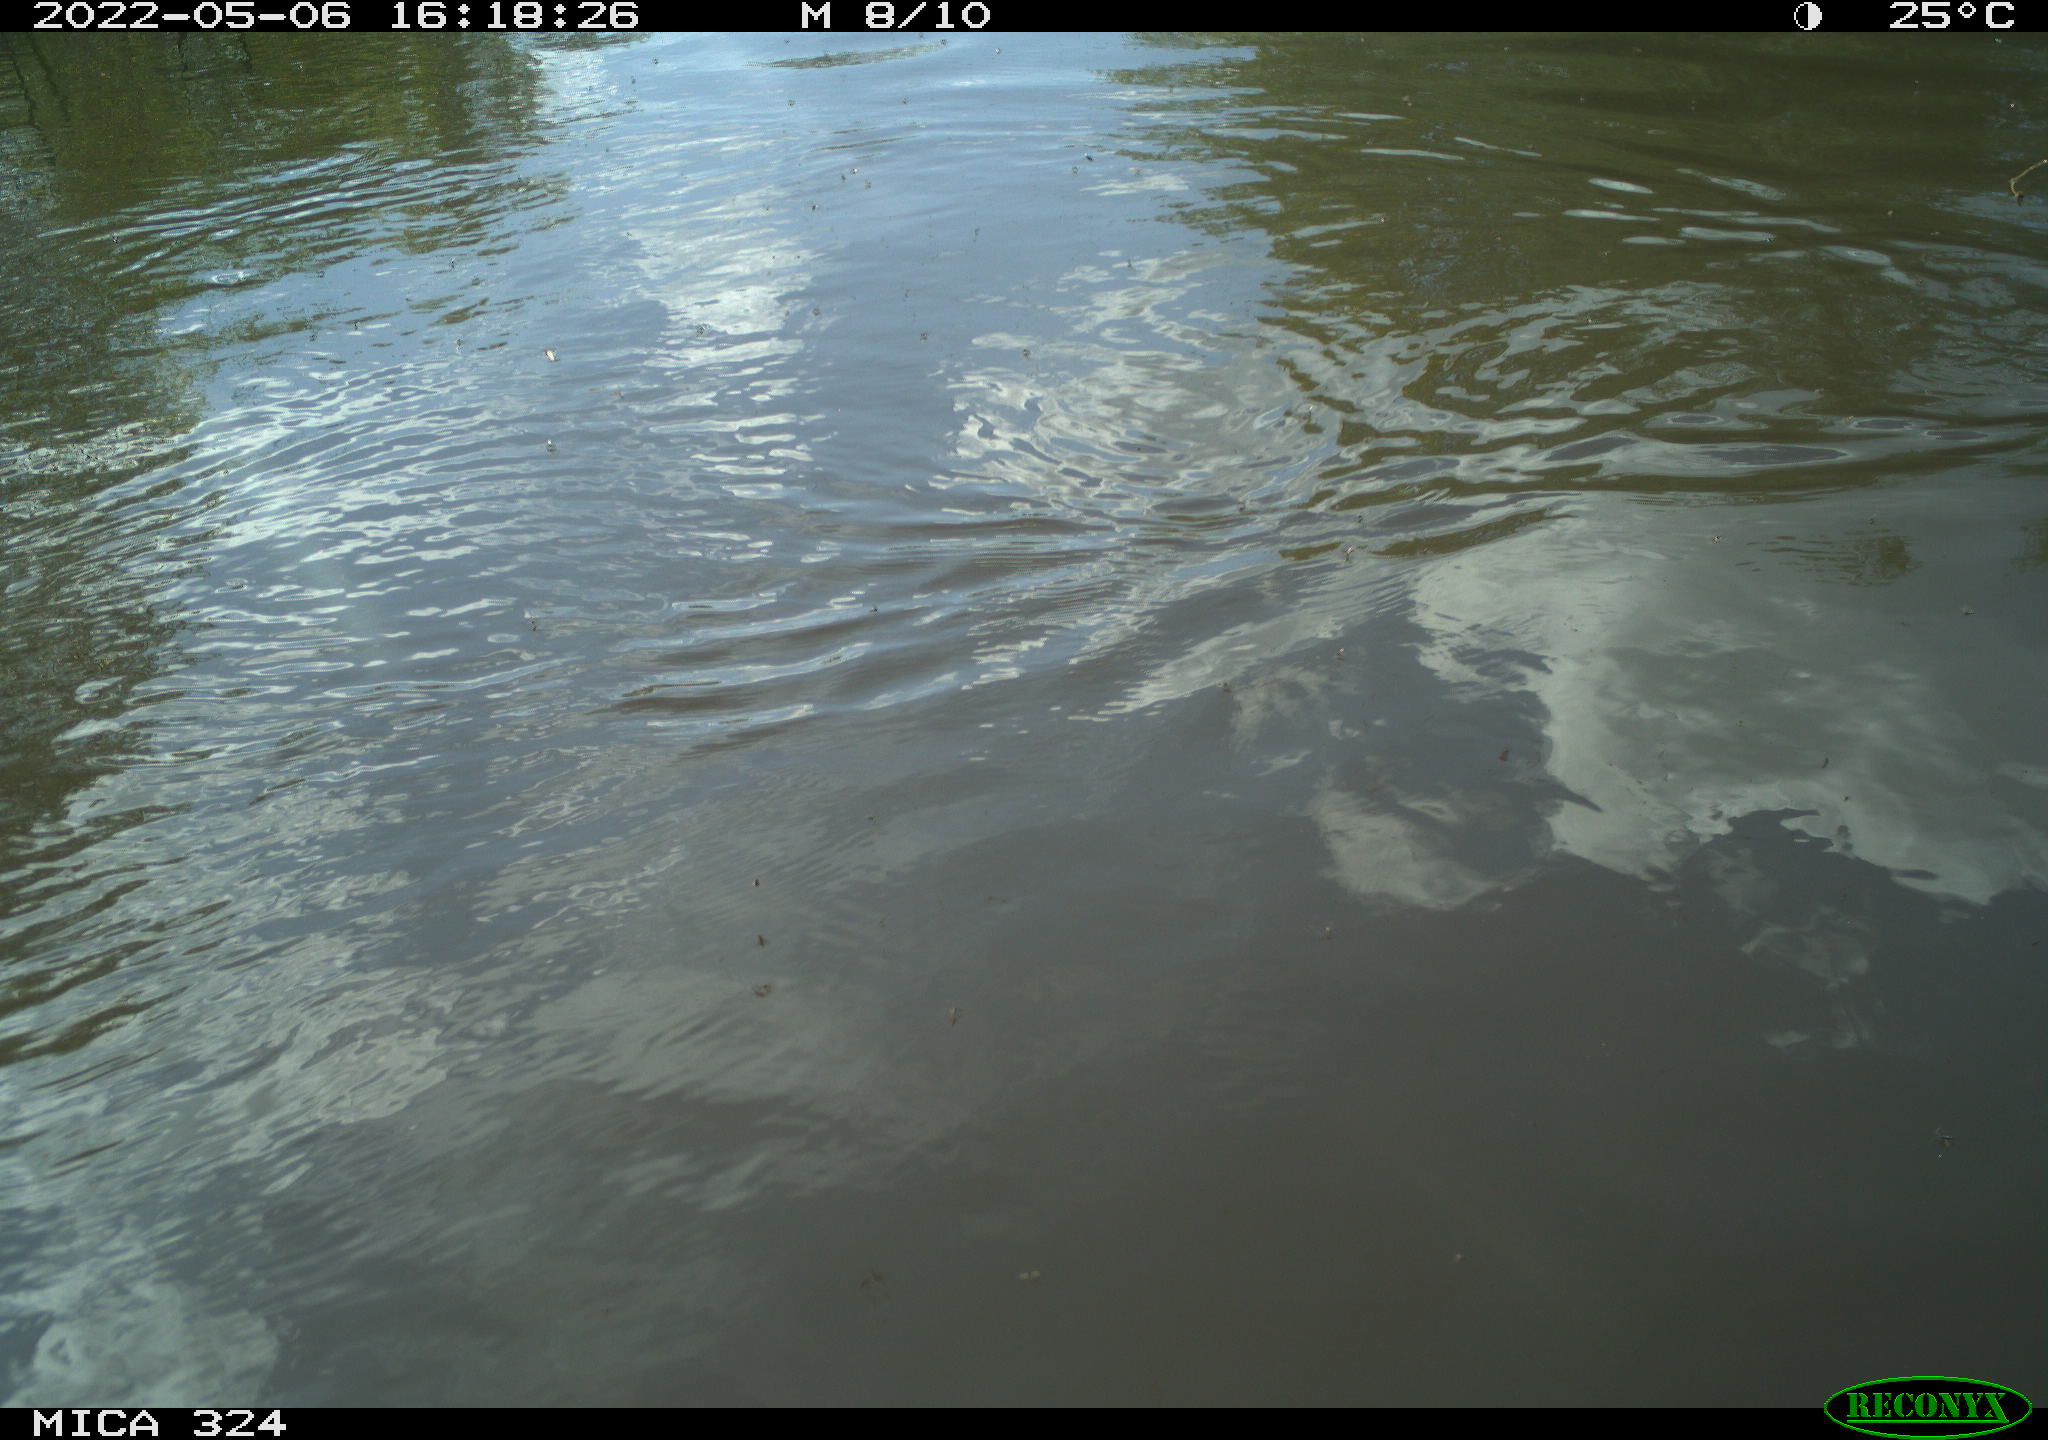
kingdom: Animalia
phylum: Chordata
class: Aves
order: Gruiformes
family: Rallidae
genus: Gallinula
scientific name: Gallinula chloropus
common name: Common moorhen
